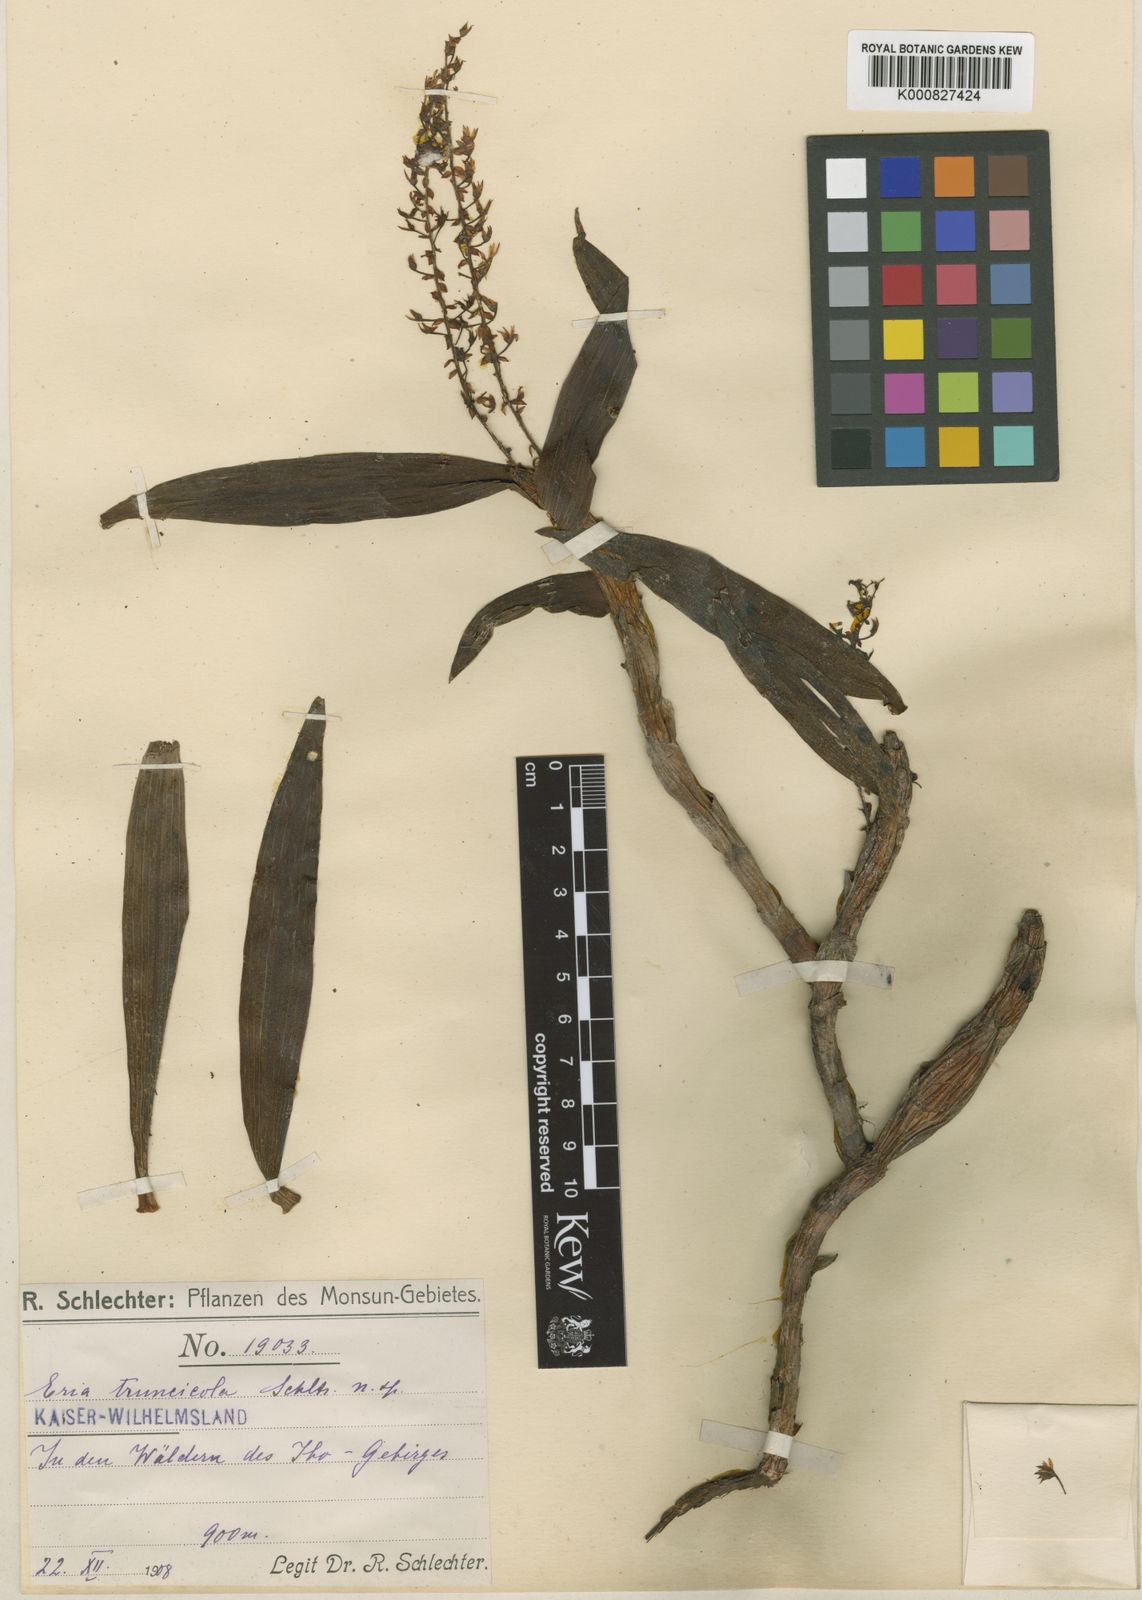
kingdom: Plantae
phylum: Tracheophyta
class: Liliopsida
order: Asparagales
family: Orchidaceae
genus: Pinalia
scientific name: Pinalia truncicola
